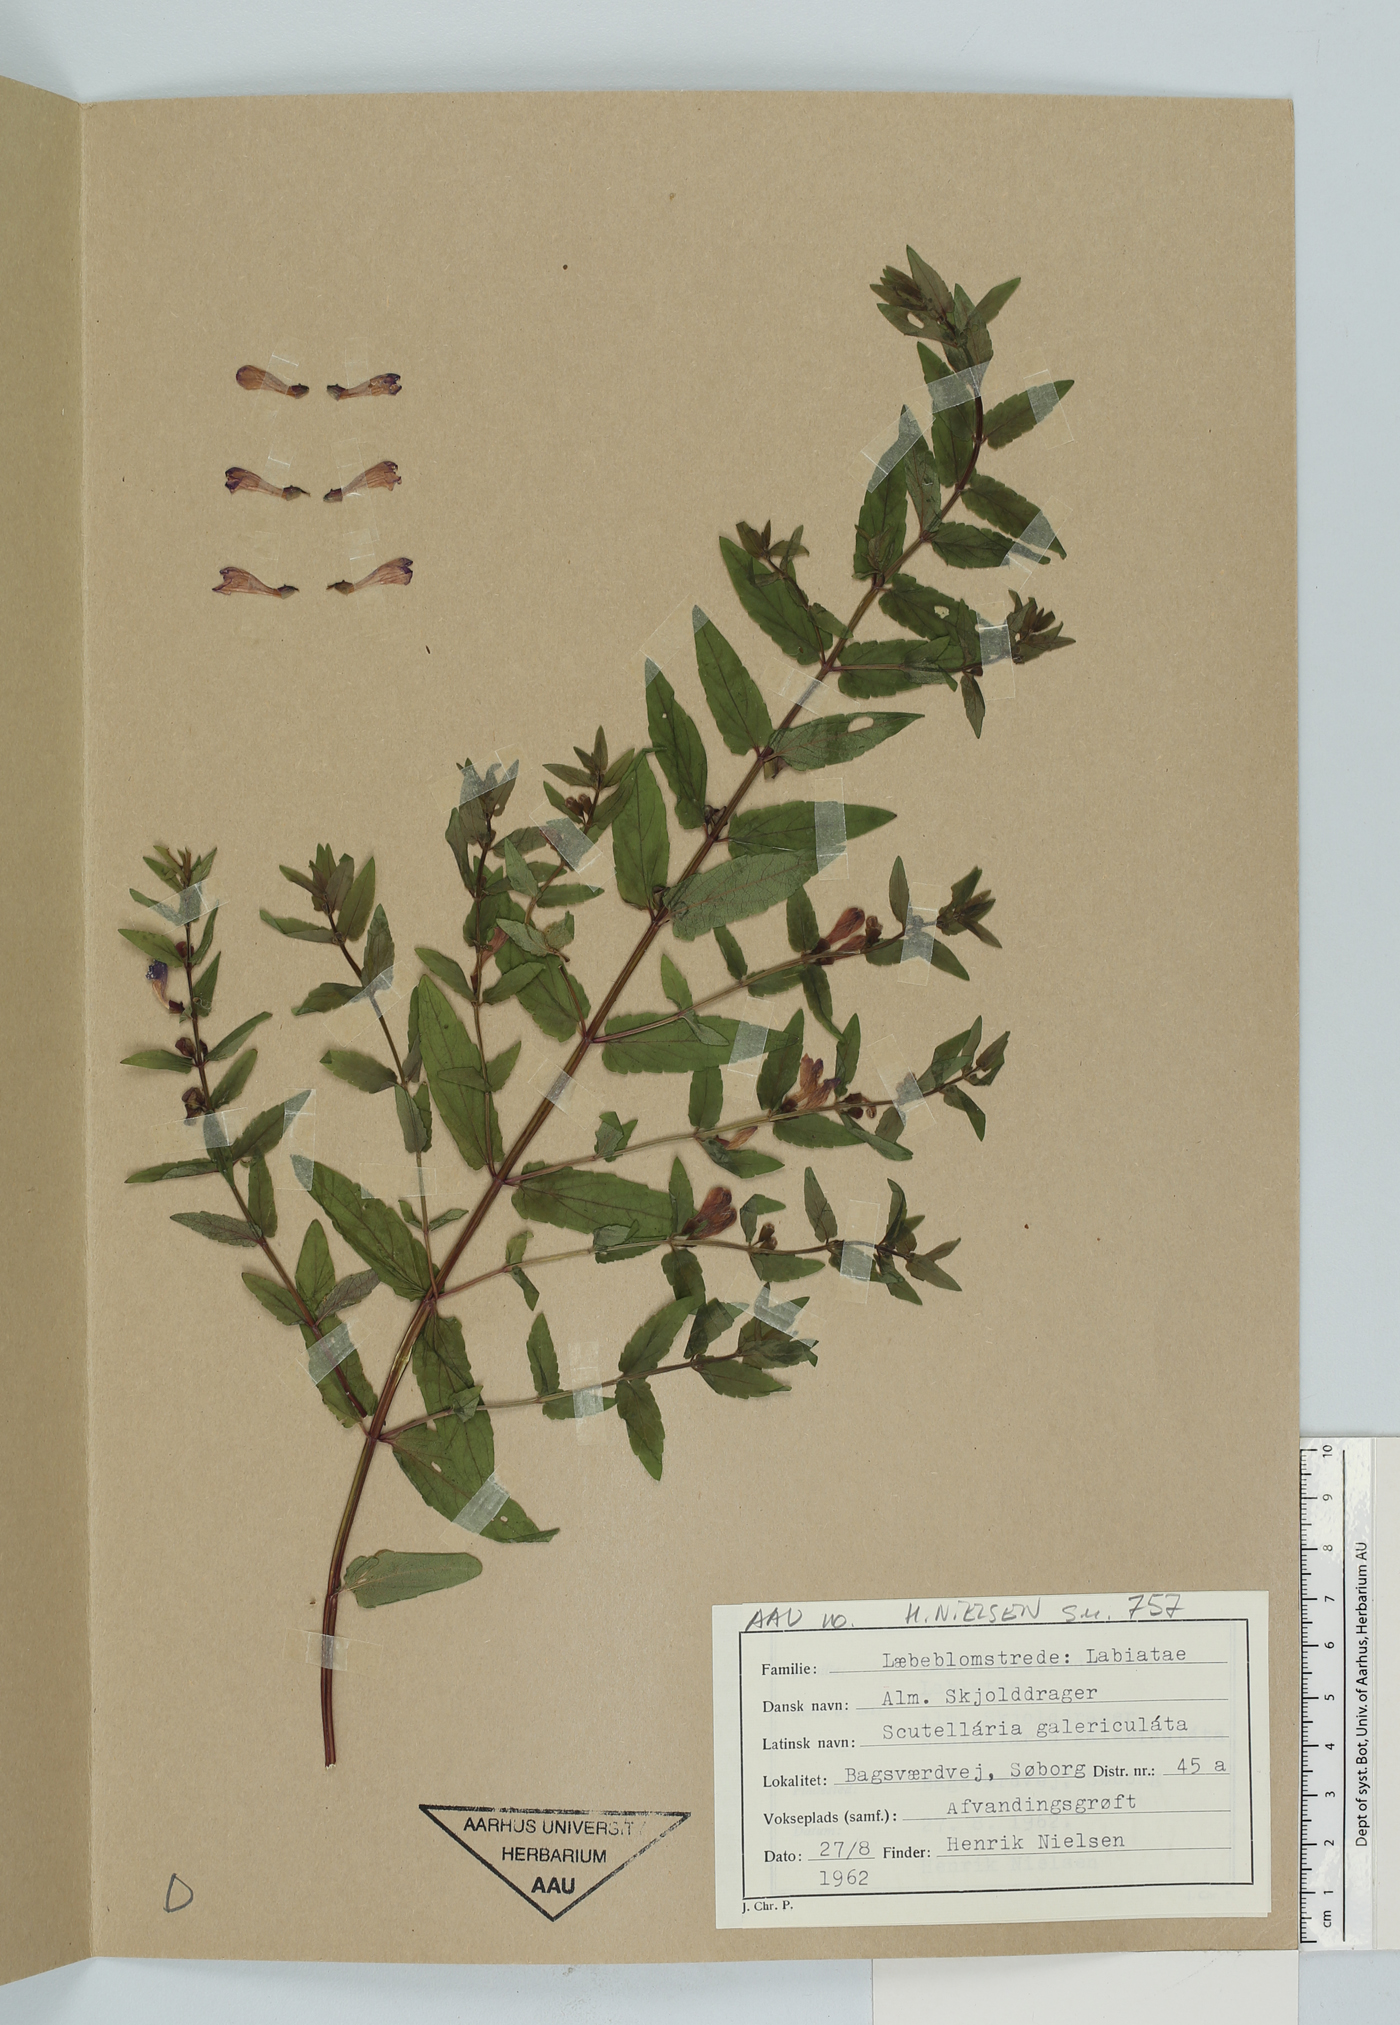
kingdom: Plantae
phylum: Tracheophyta
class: Magnoliopsida
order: Lamiales
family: Lamiaceae
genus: Scutellaria
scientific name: Scutellaria galericulata
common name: Skullcap
